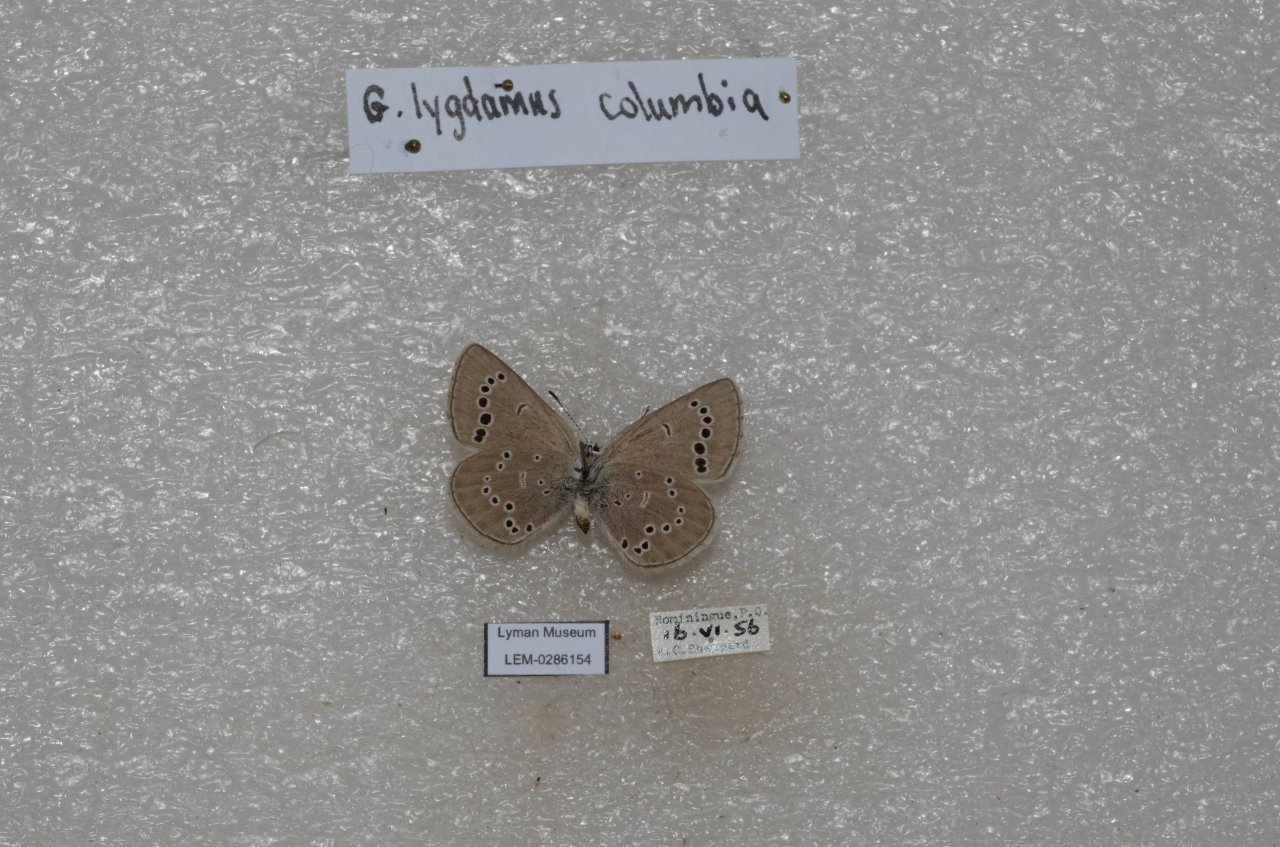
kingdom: Animalia
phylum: Arthropoda
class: Insecta
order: Lepidoptera
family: Lycaenidae
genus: Glaucopsyche
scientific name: Glaucopsyche lygdamus
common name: Silvery Blue
